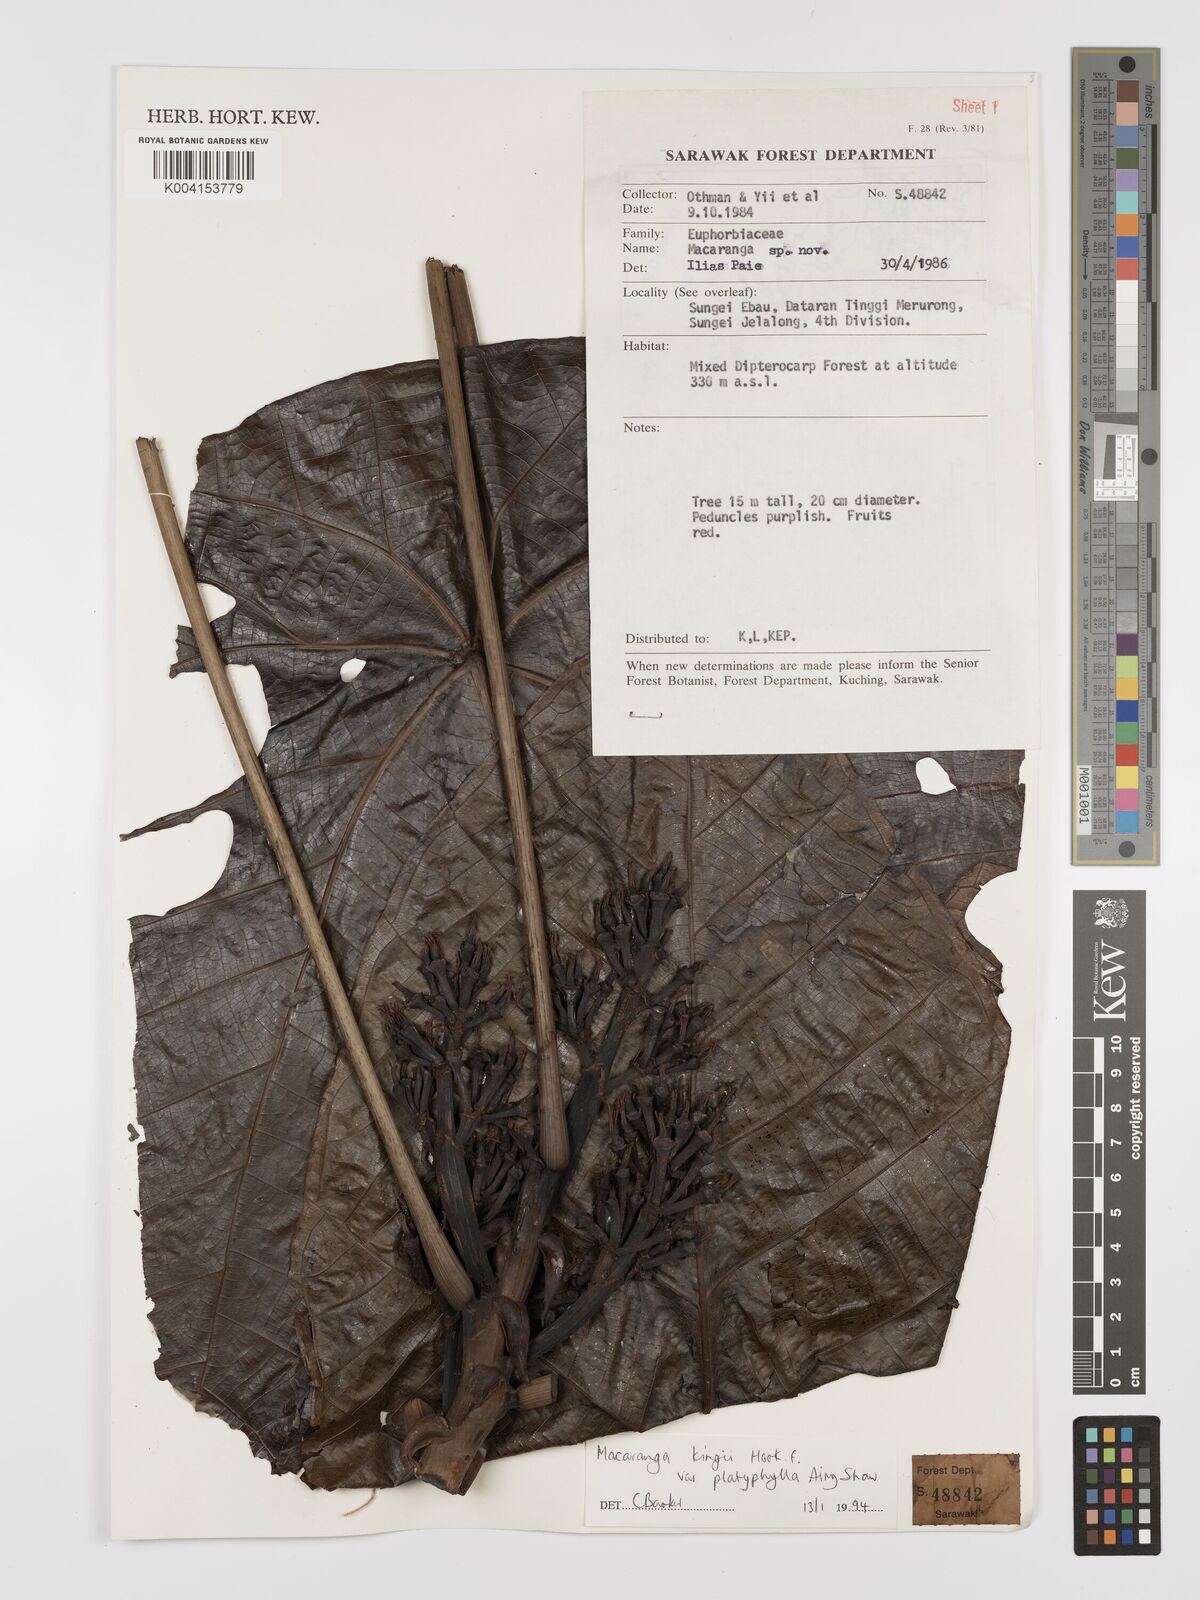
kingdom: Plantae
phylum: Tracheophyta
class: Magnoliopsida
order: Malpighiales
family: Euphorbiaceae
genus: Macaranga
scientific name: Macaranga umbrosa
